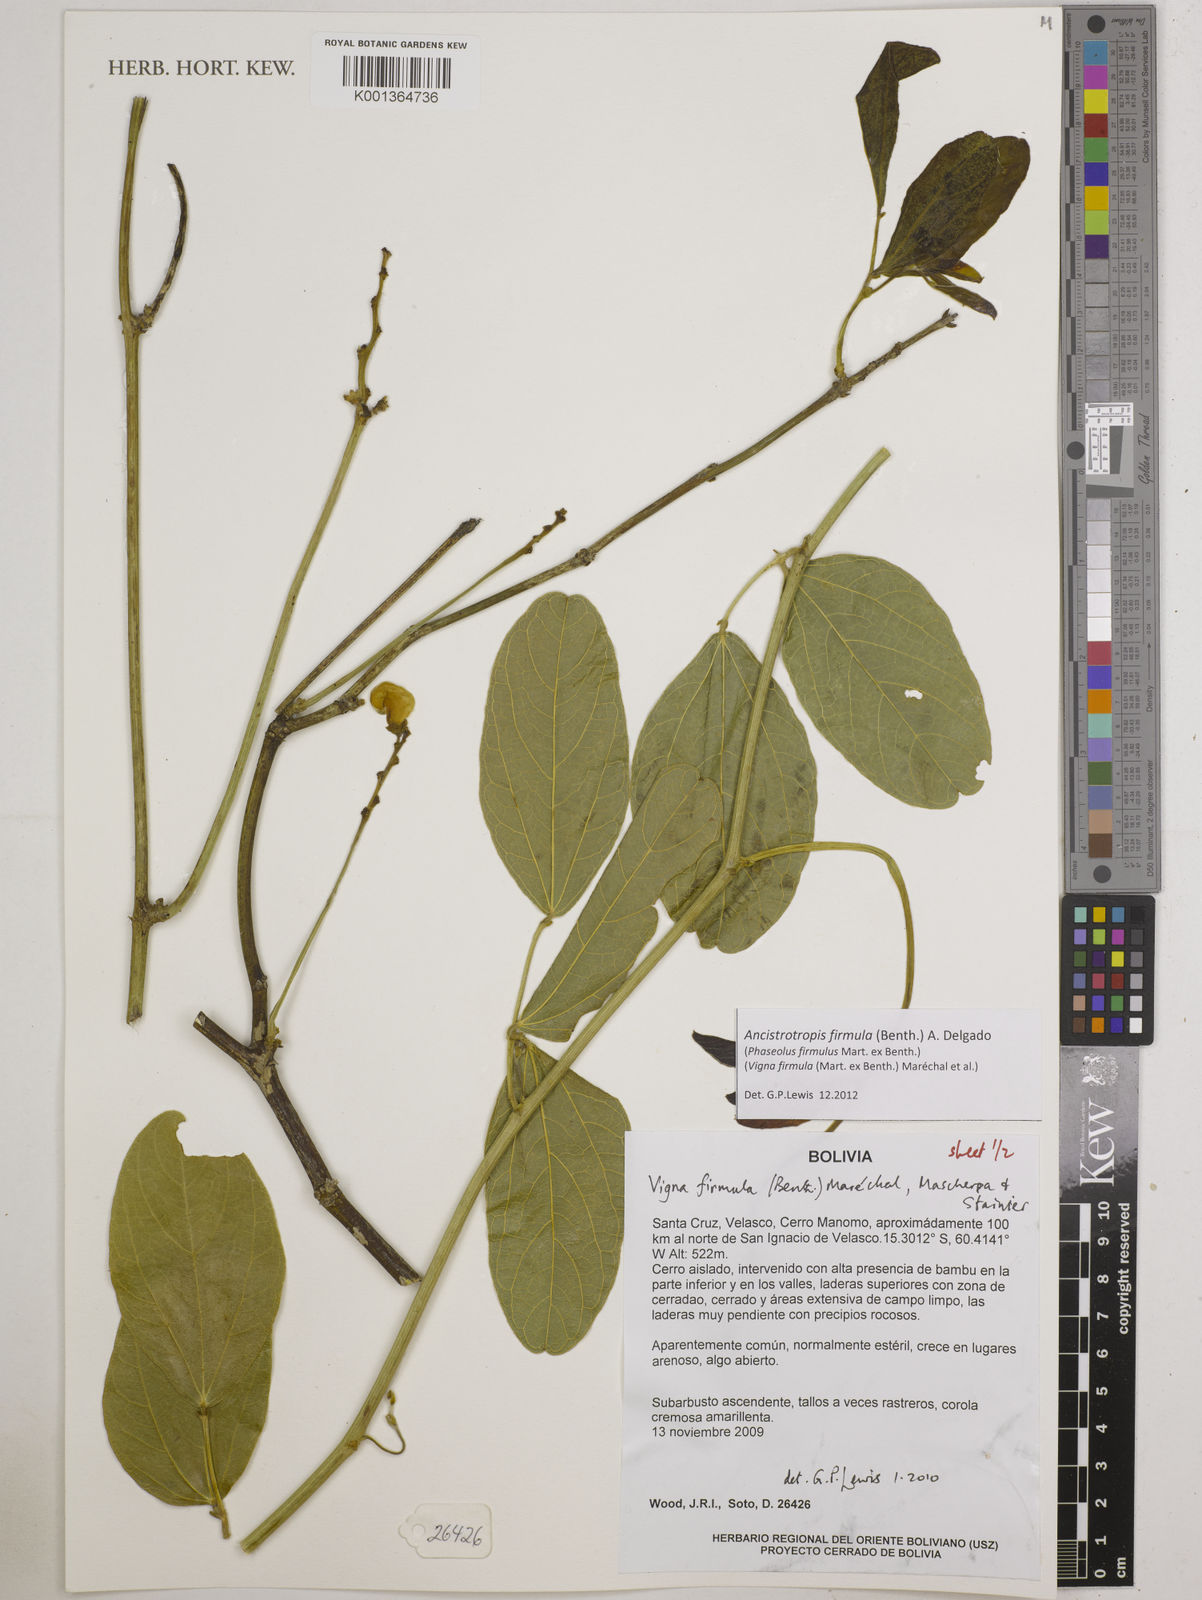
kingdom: Plantae
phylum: Tracheophyta
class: Magnoliopsida
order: Fabales
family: Fabaceae
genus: Ancistrotropis
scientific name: Ancistrotropis firmula
